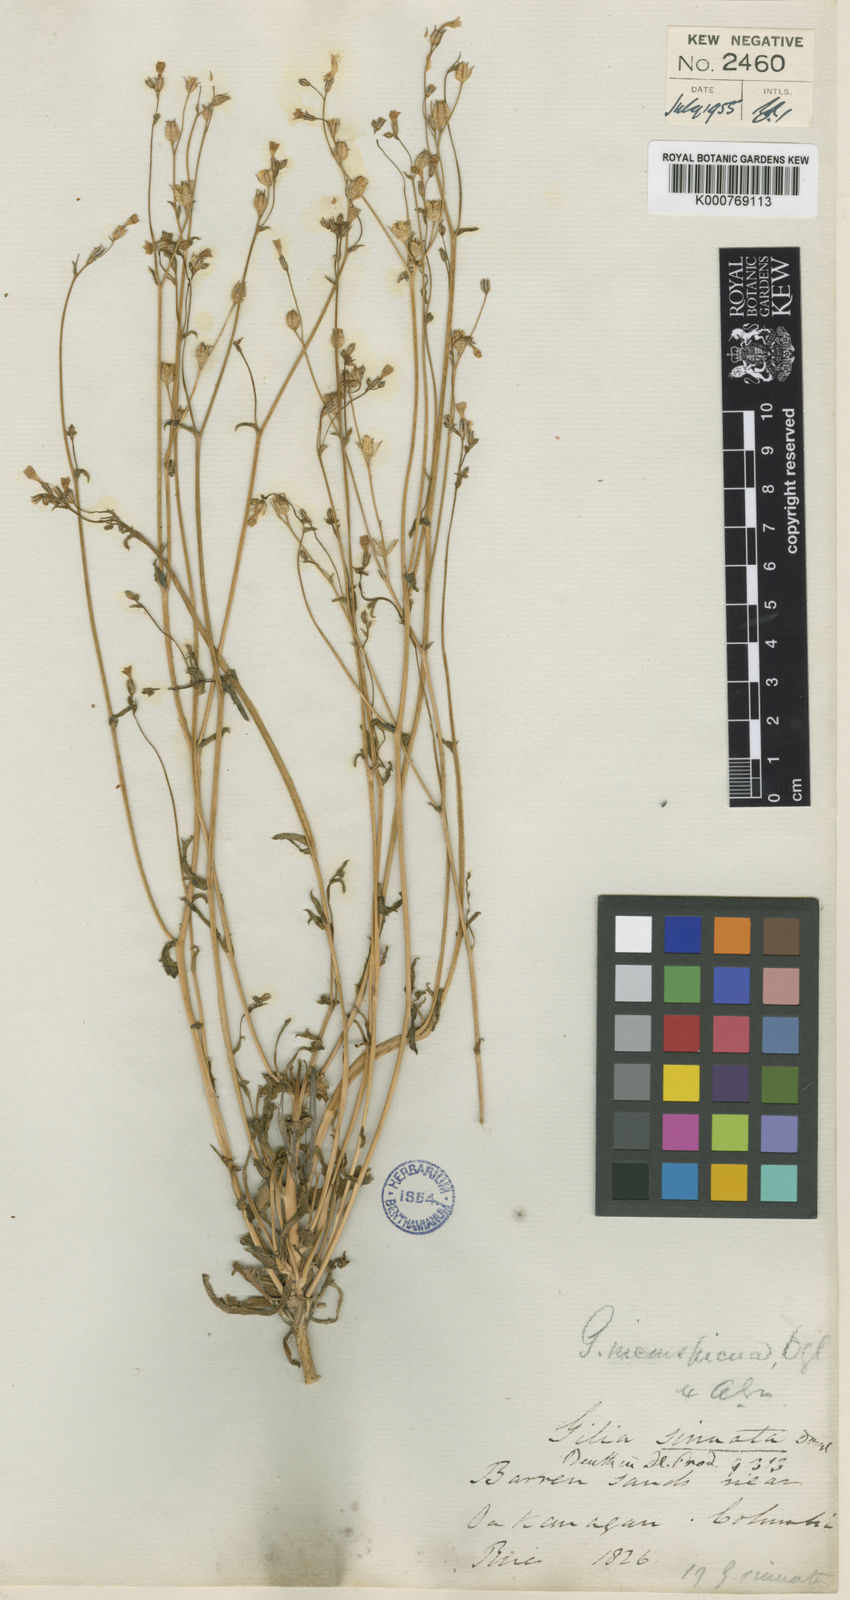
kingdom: Plantae
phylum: Tracheophyta
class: Magnoliopsida
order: Ericales
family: Polemoniaceae
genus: Gilia
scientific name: Gilia inconspicua
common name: Shy gilia
